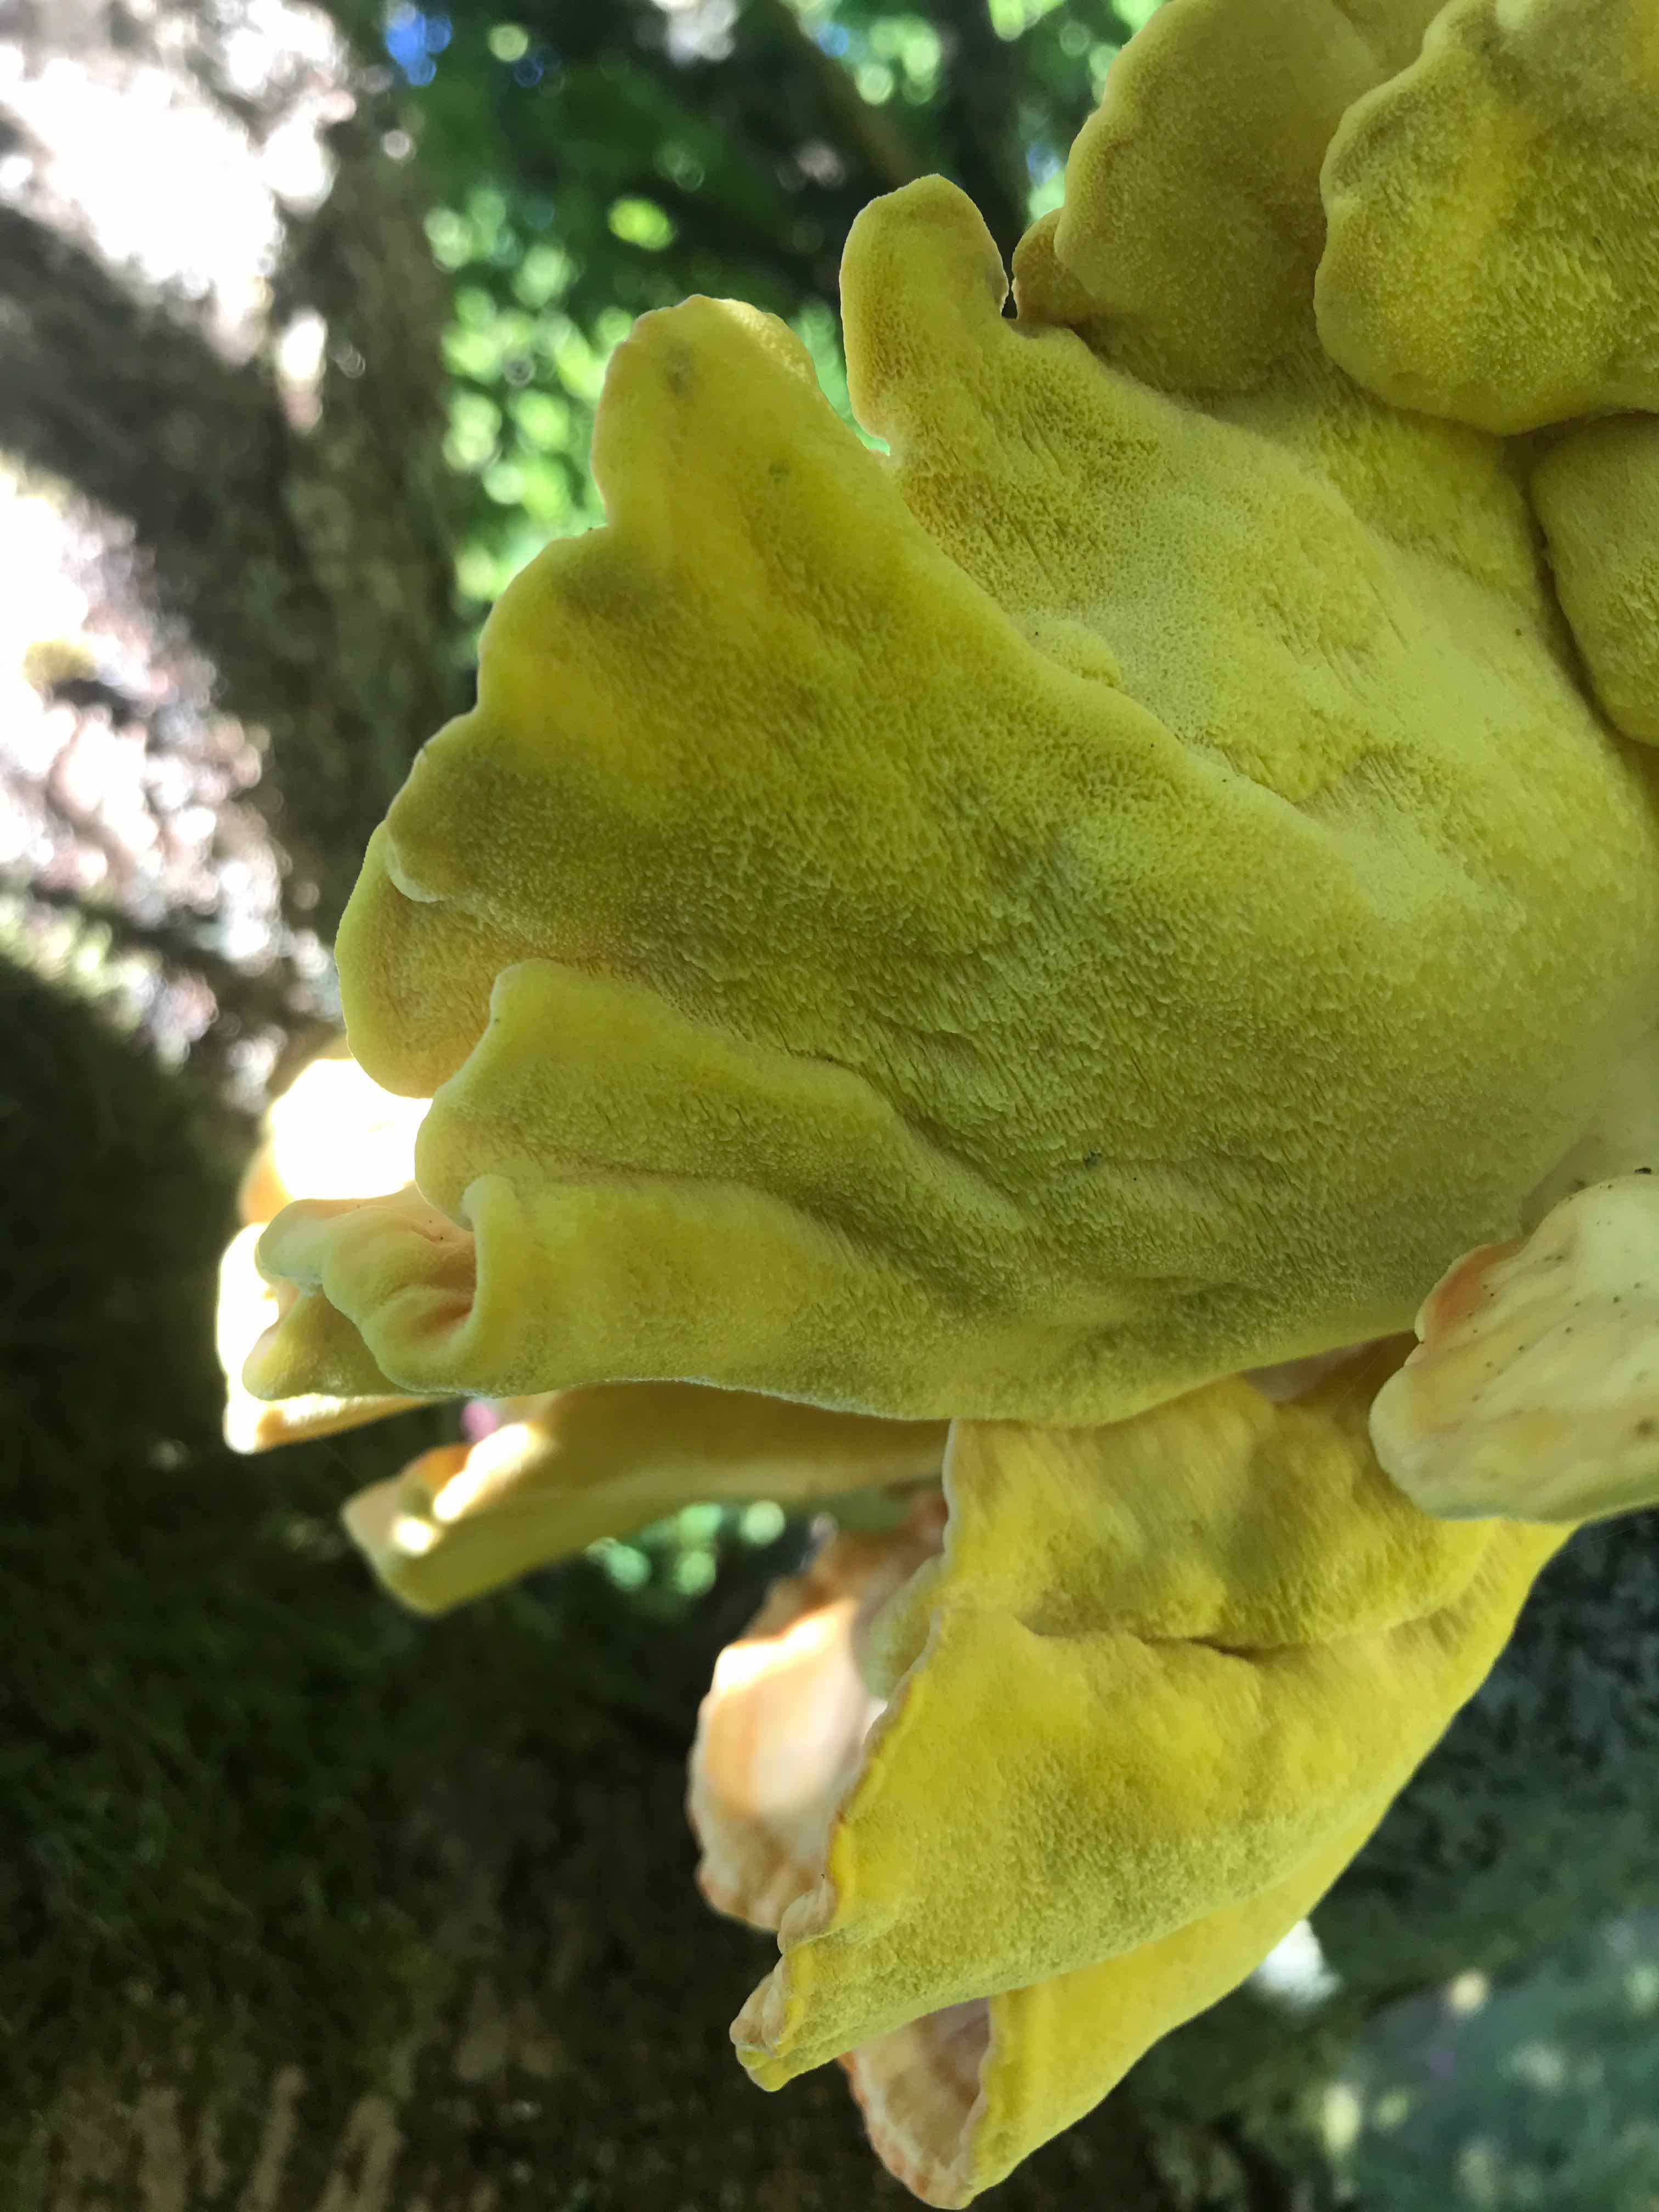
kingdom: Fungi
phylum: Basidiomycota
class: Agaricomycetes
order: Polyporales
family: Laetiporaceae
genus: Laetiporus
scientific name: Laetiporus sulphureus
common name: svovlporesvamp
